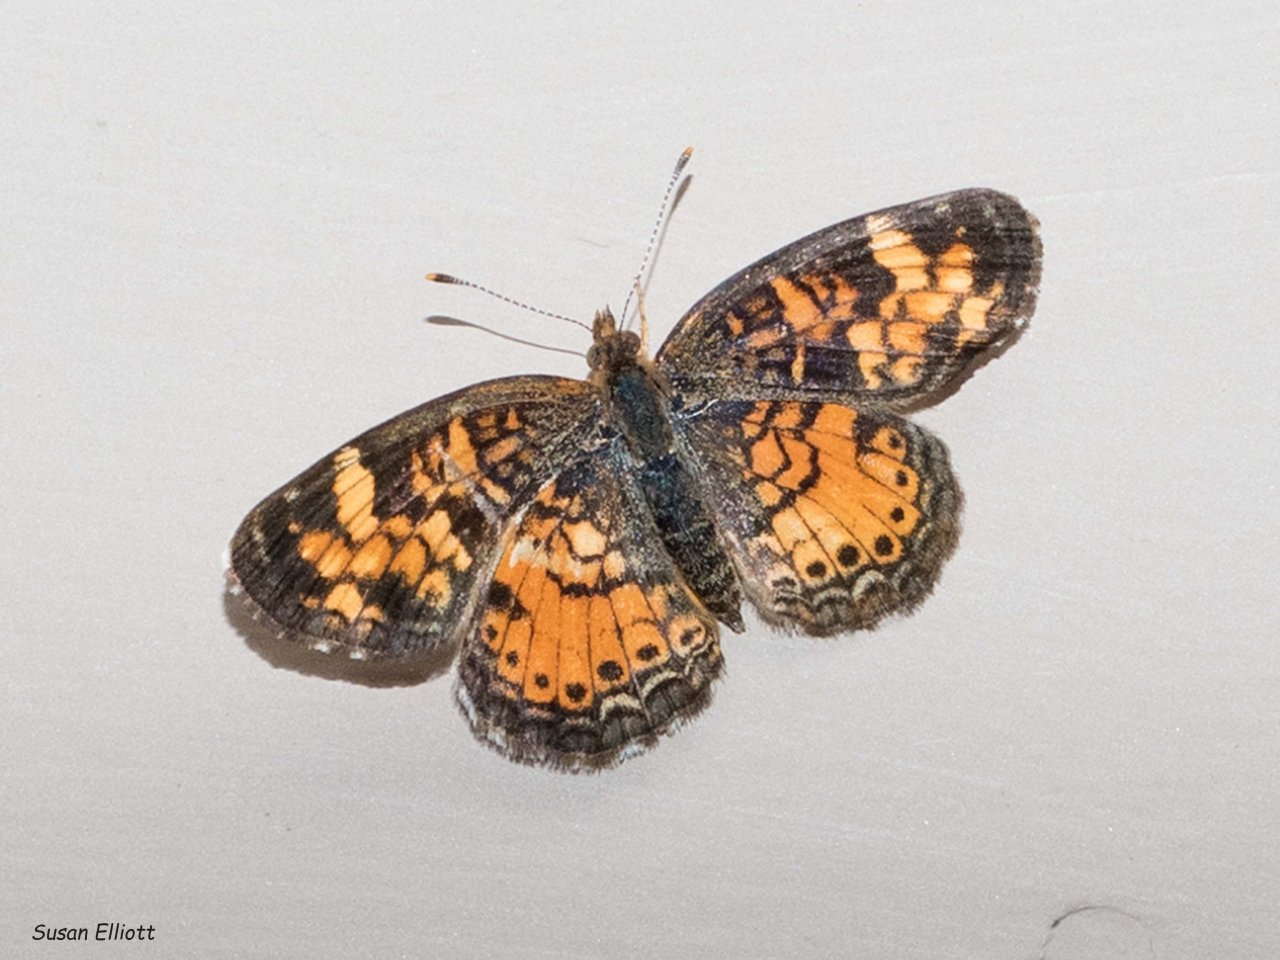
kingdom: Animalia
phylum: Arthropoda
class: Insecta
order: Lepidoptera
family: Nymphalidae
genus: Phyciodes
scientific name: Phyciodes
